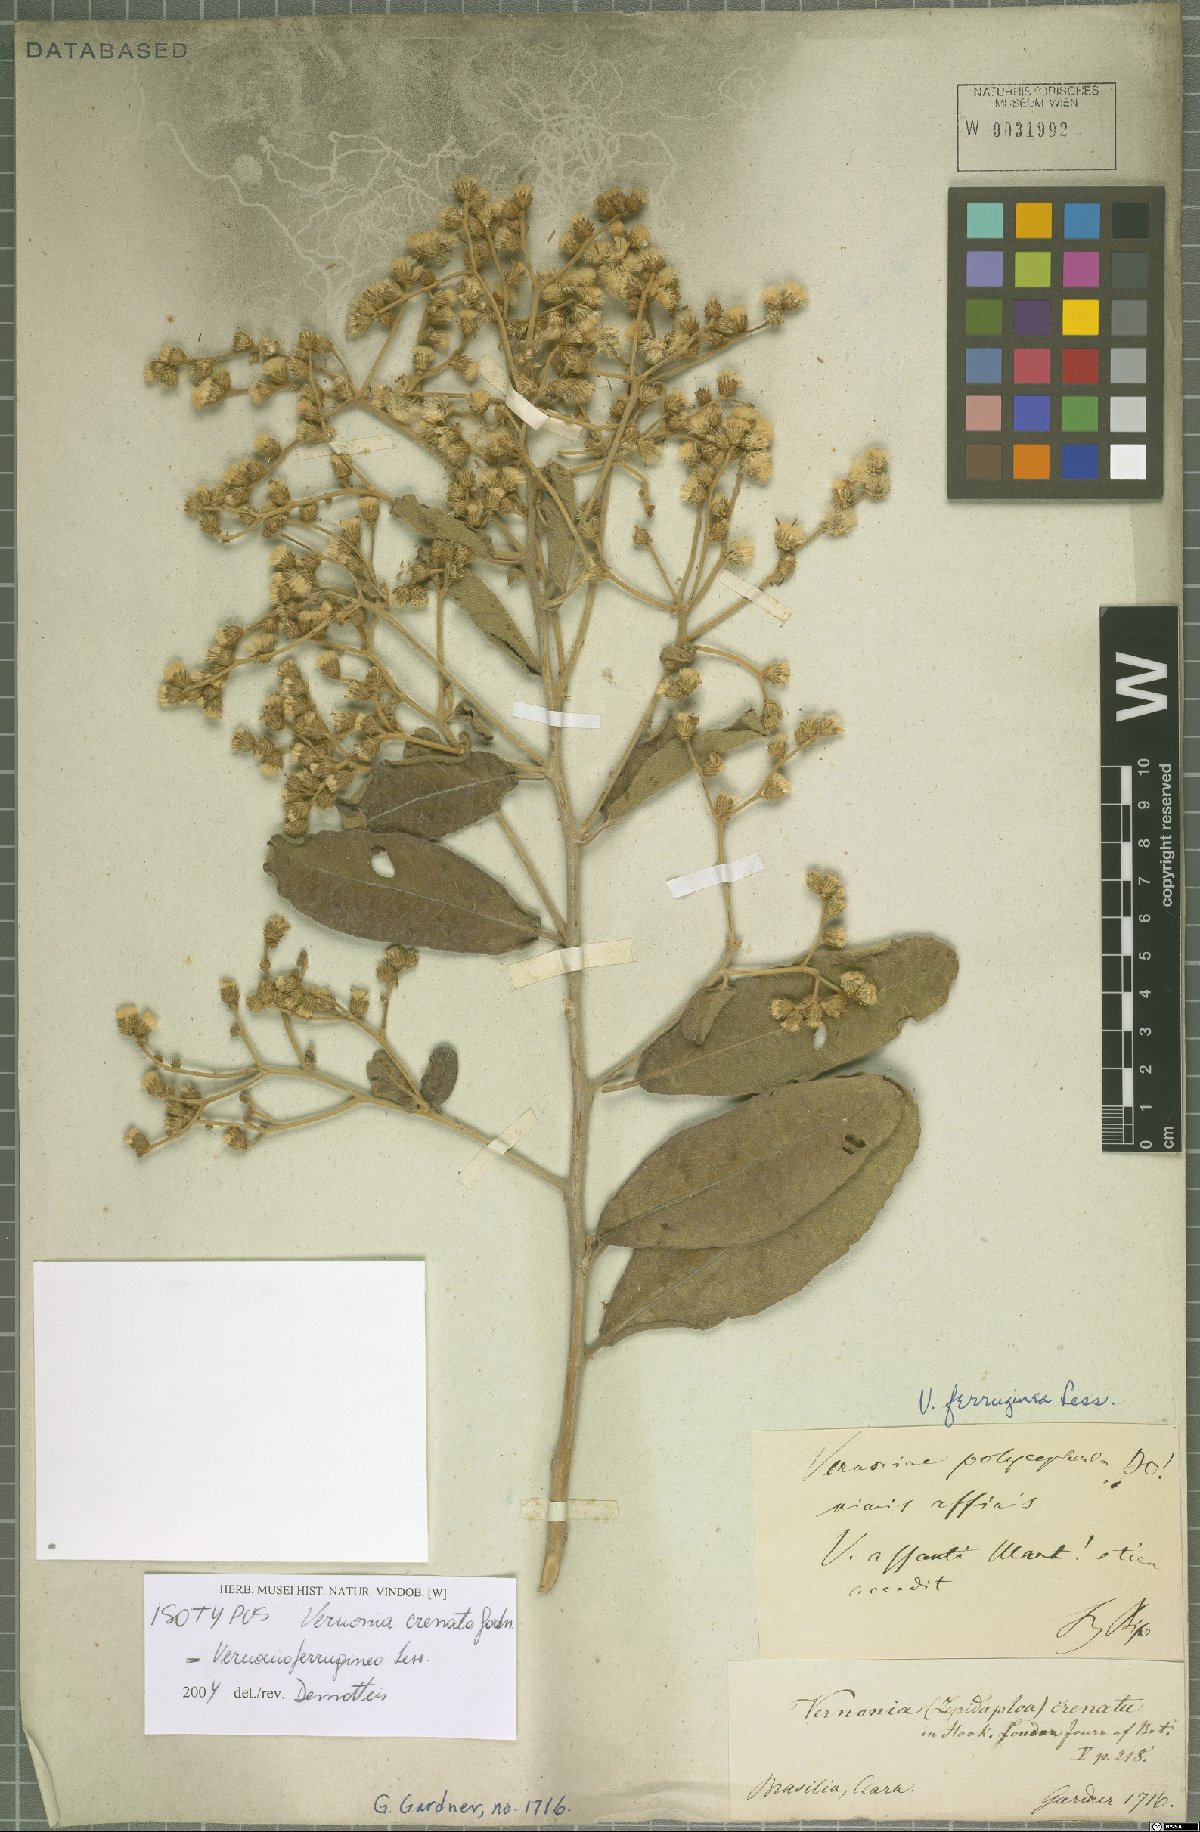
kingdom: Plantae
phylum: Tracheophyta
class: Magnoliopsida
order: Asterales
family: Asteraceae
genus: Vernonanthura
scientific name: Vernonanthura ferruginea
